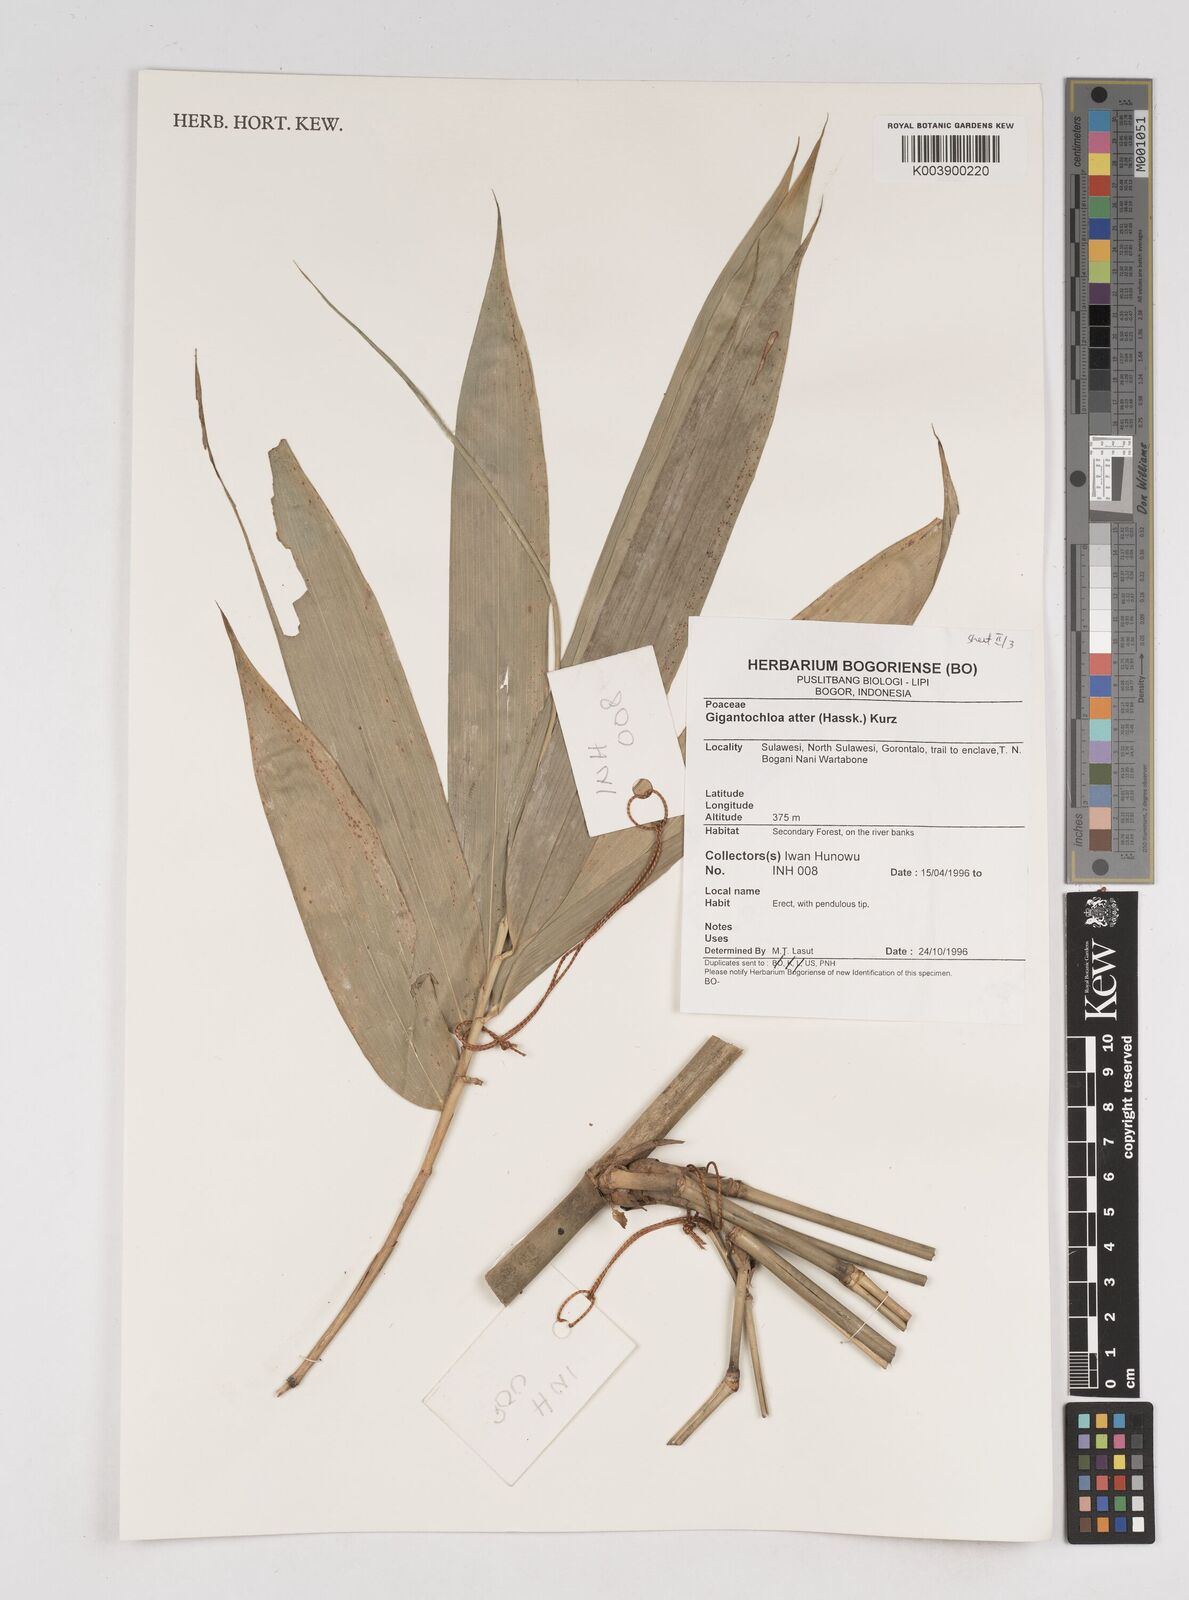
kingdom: Plantae
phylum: Tracheophyta
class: Liliopsida
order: Poales
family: Poaceae
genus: Gigantochloa
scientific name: Gigantochloa atter
